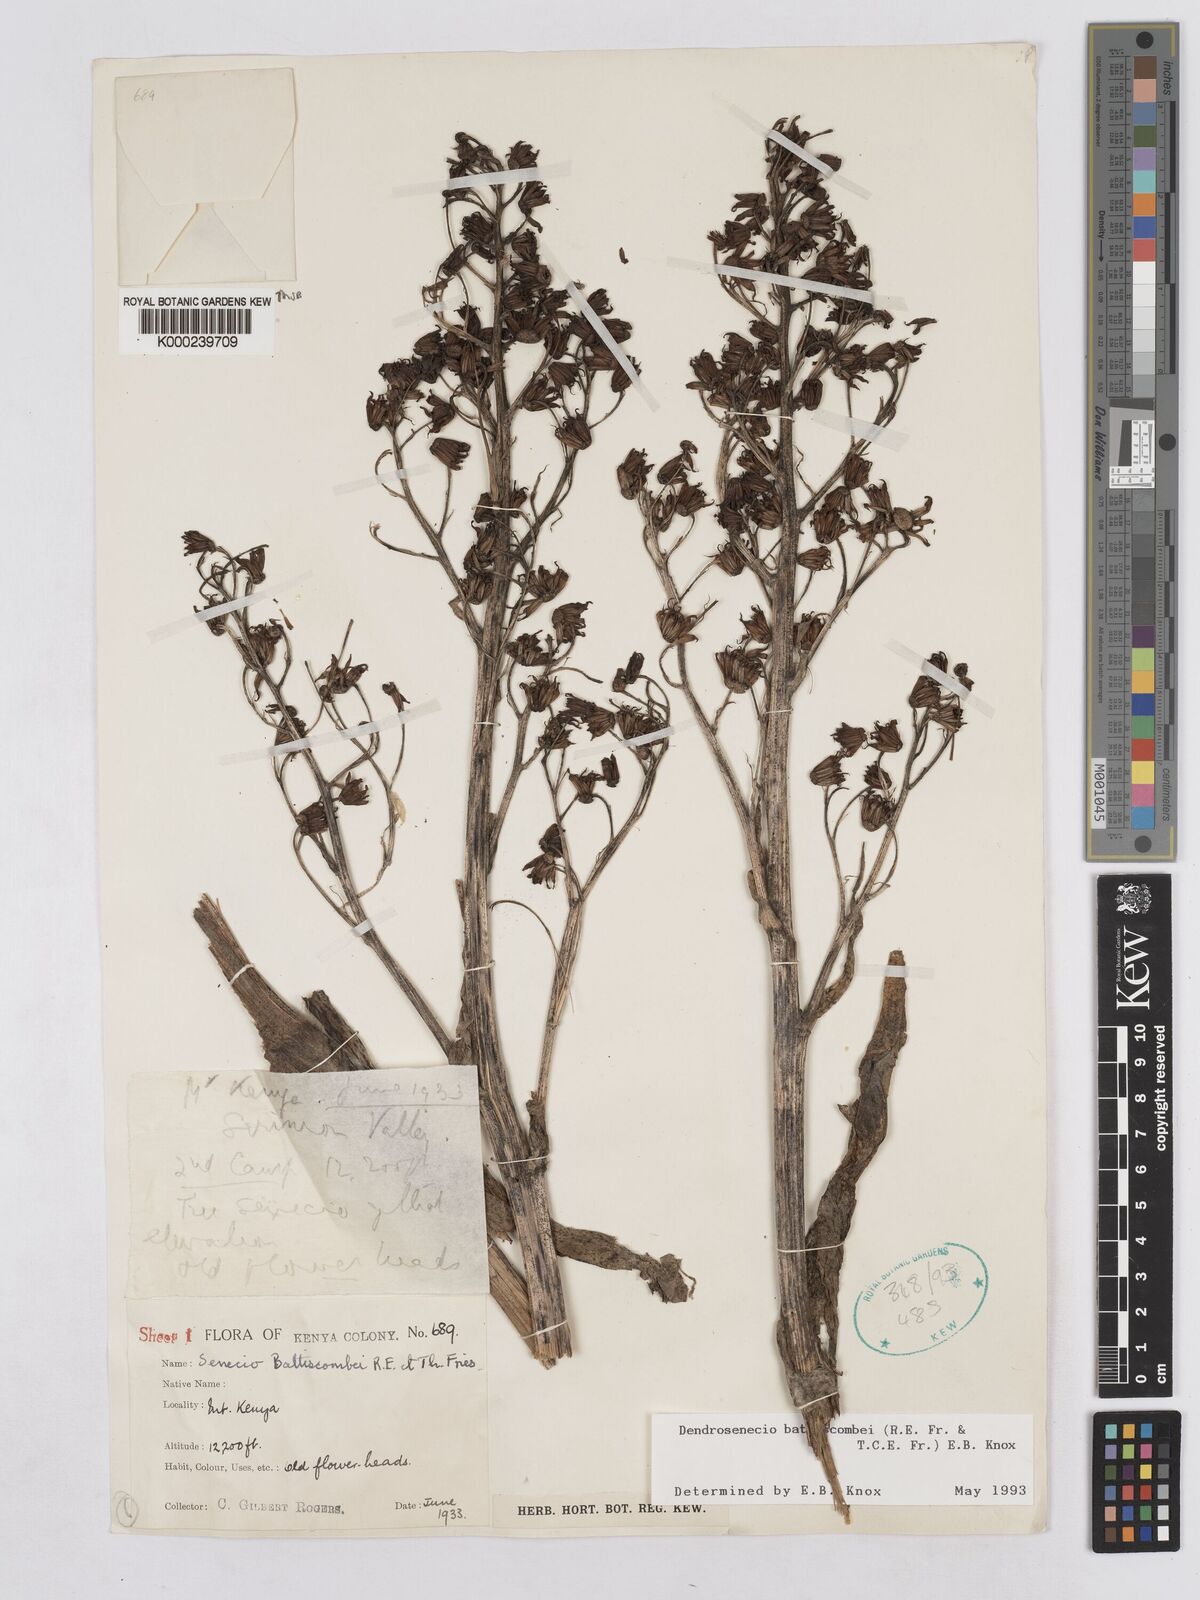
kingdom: Plantae
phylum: Tracheophyta
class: Magnoliopsida
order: Asterales
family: Asteraceae
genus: Dendrosenecio
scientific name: Dendrosenecio battiscombei
